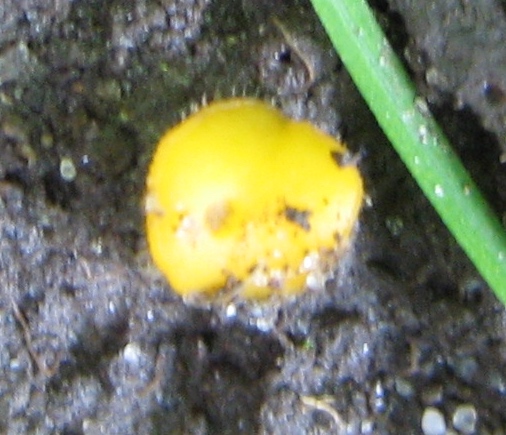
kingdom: Fungi
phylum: Ascomycota
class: Pezizomycetes
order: Pezizales
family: Pyronemataceae
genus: Cheilymenia
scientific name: Cheilymenia vitellina
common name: æggegul hårbæger
